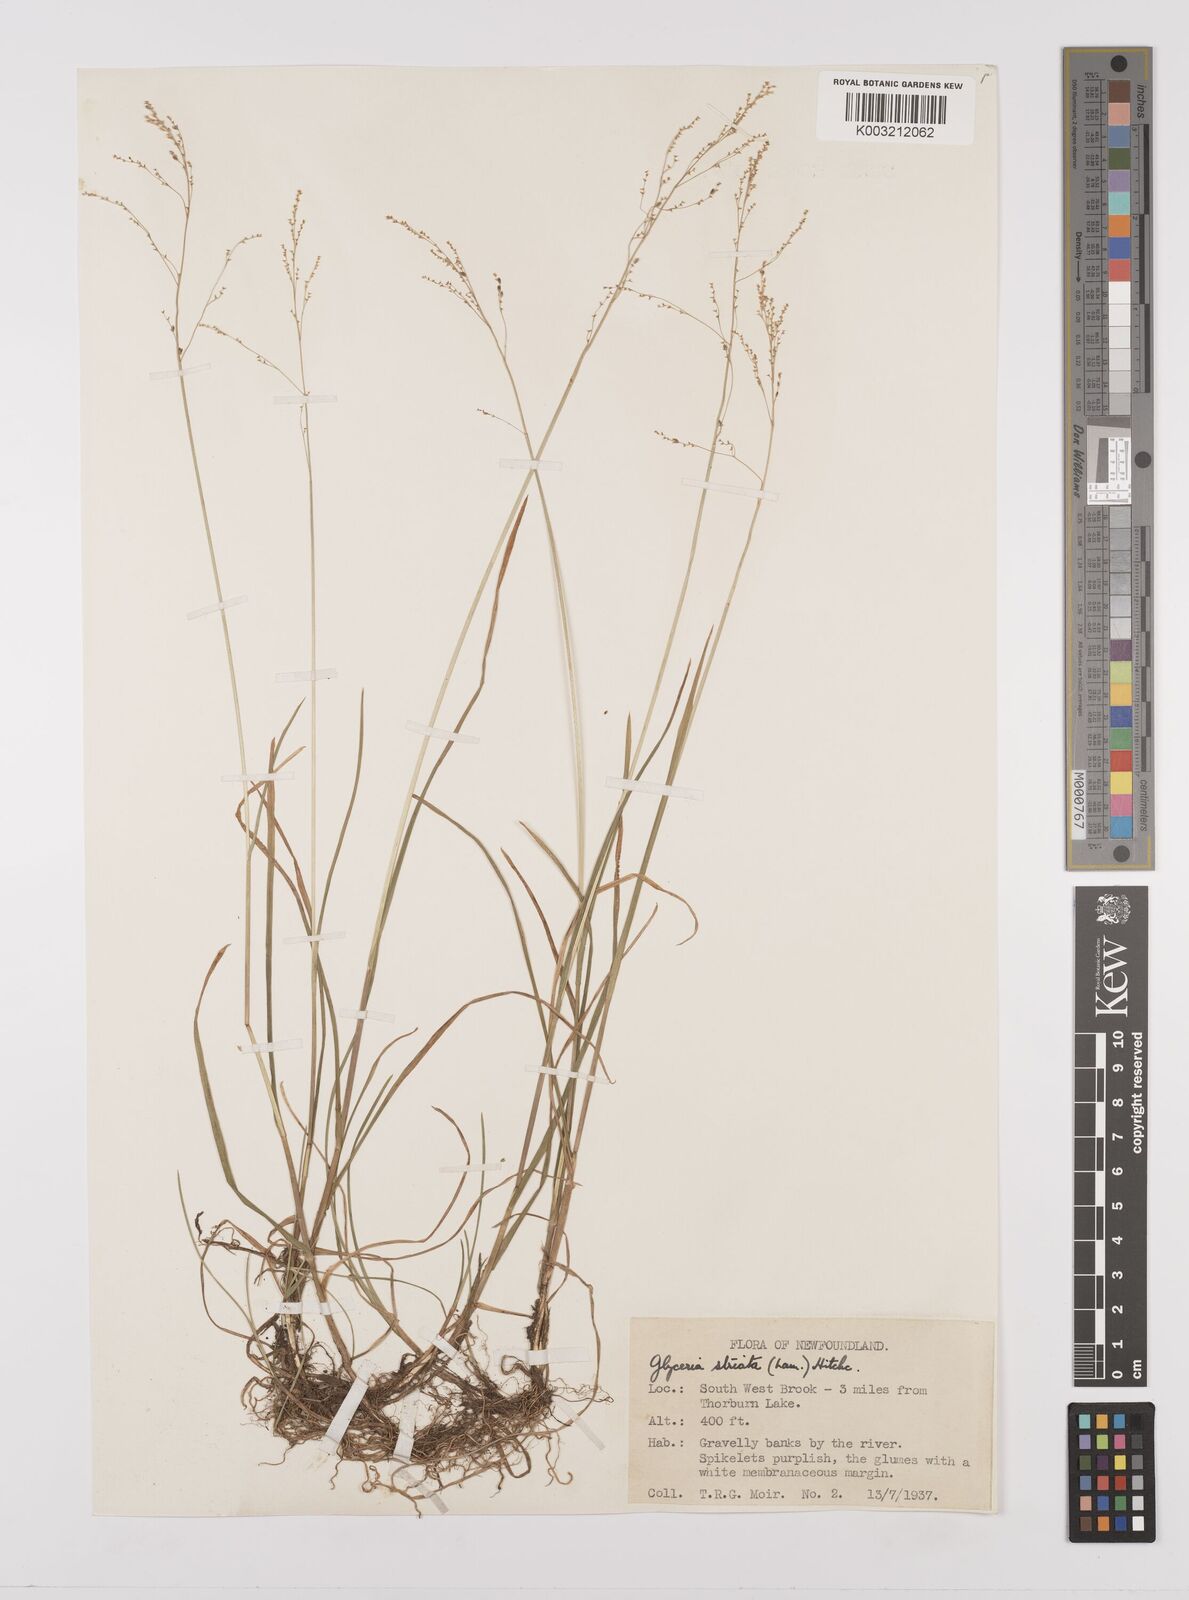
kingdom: Plantae
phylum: Tracheophyta
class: Liliopsida
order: Poales
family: Poaceae
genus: Glyceria
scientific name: Glyceria striata
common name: Fowl manna grass
